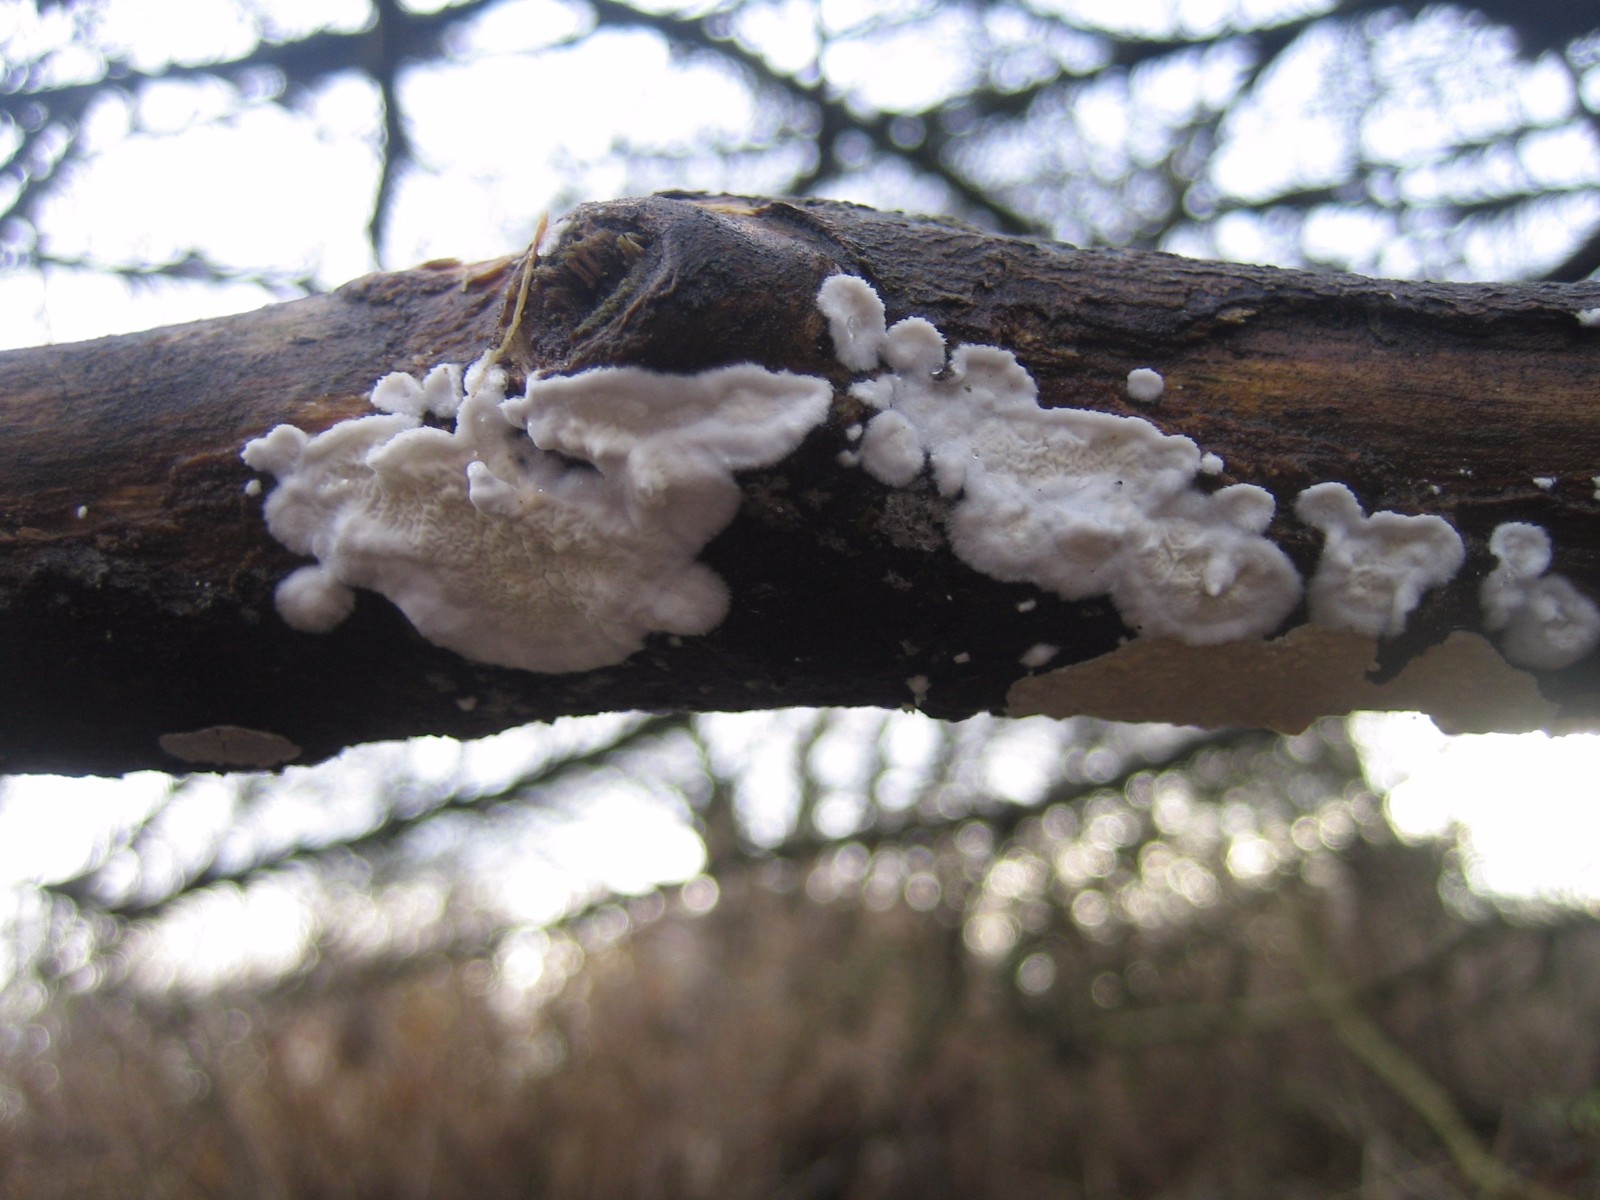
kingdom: Fungi
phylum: Basidiomycota
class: Agaricomycetes
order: Polyporales
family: Irpicaceae
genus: Byssomerulius
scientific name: Byssomerulius corium
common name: læder-åresvamp
